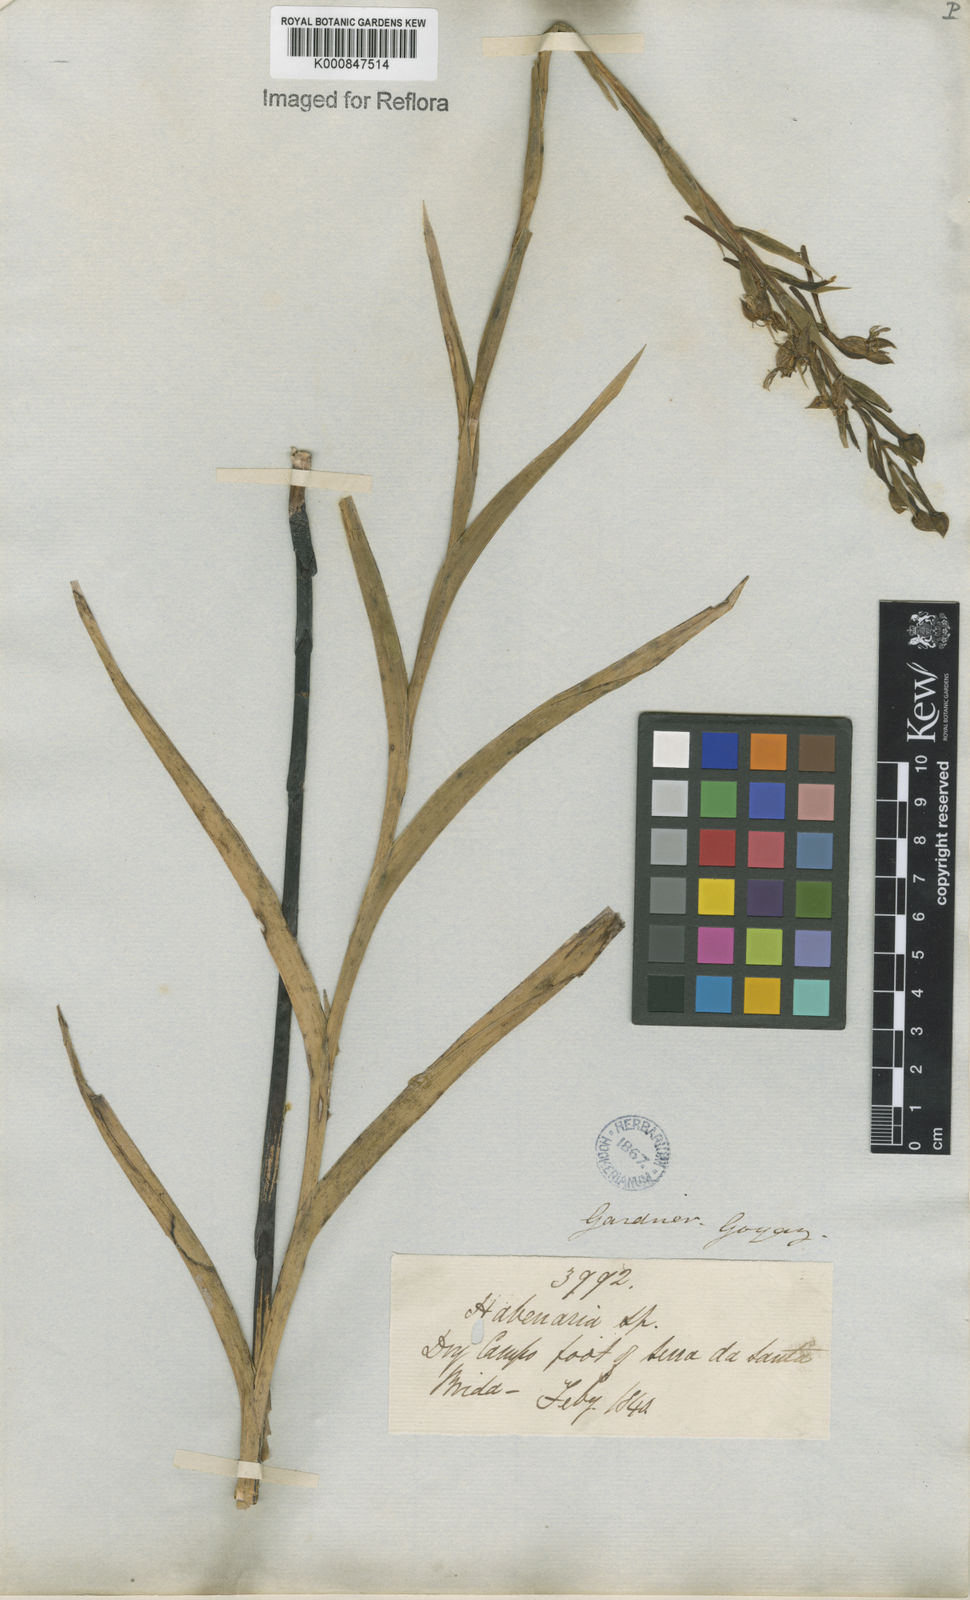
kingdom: Plantae
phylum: Tracheophyta
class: Liliopsida
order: Asparagales
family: Orchidaceae
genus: Habenaria
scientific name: Habenaria
